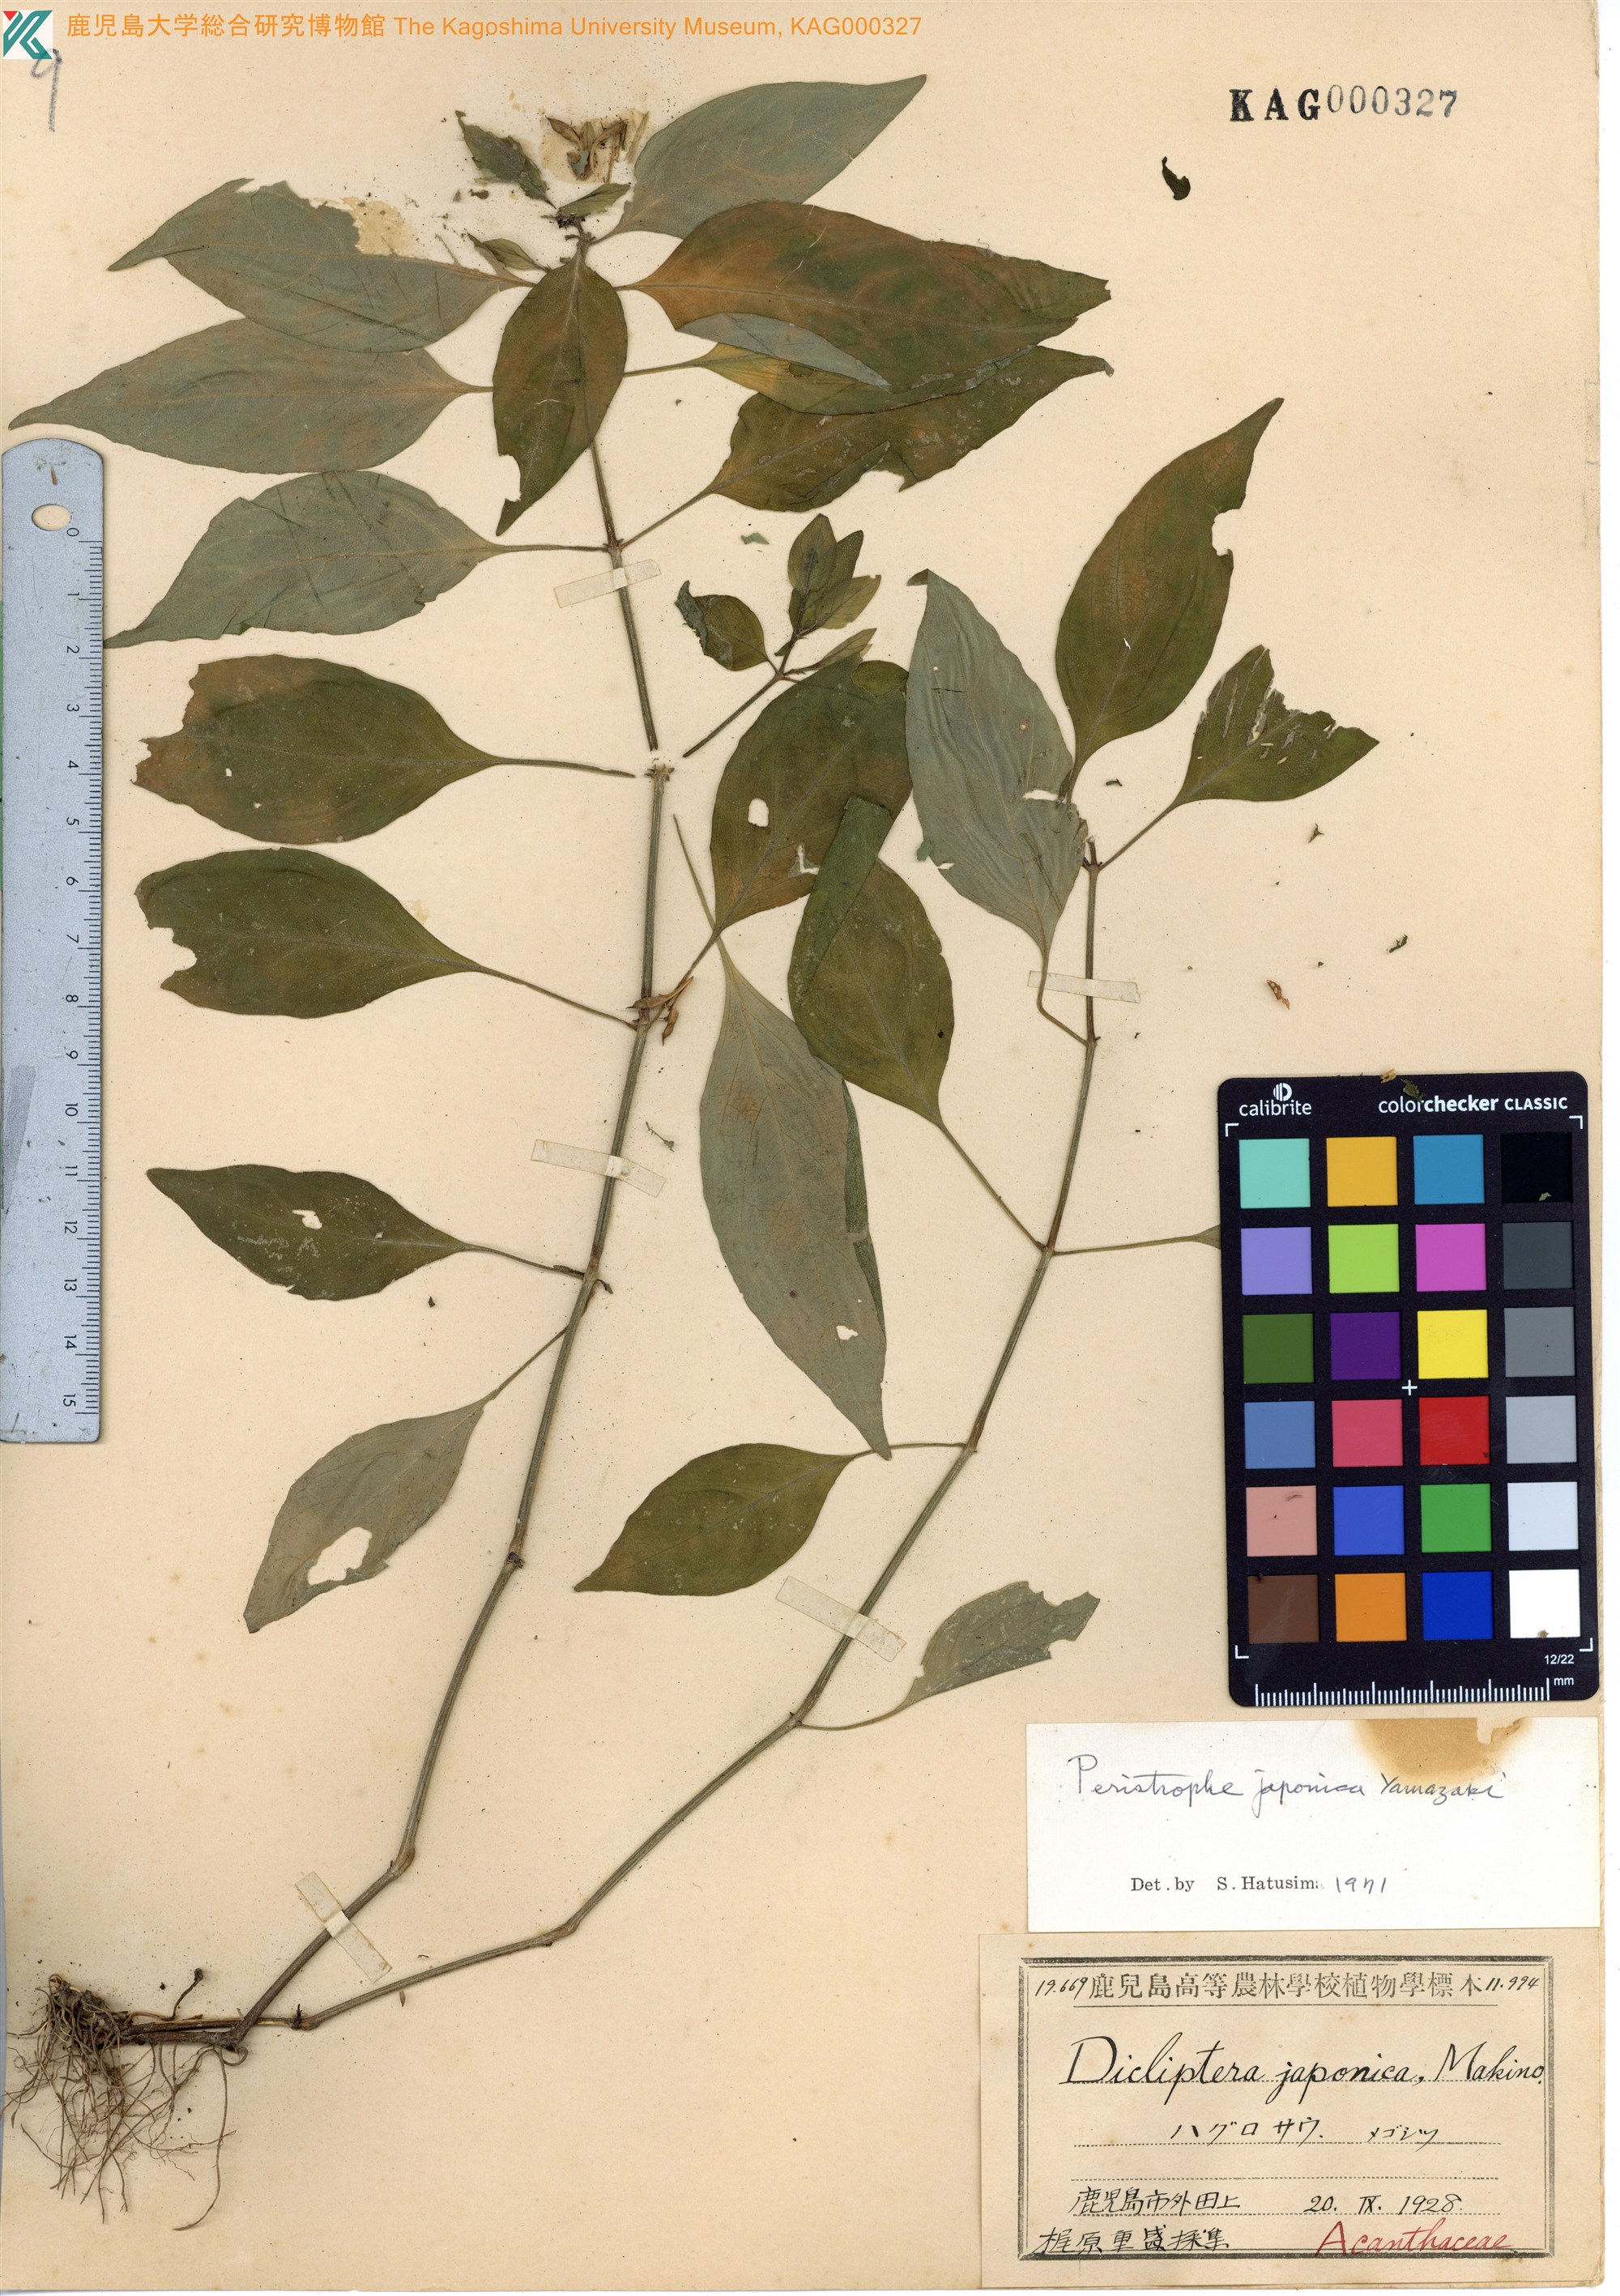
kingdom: Plantae
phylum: Tracheophyta
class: Magnoliopsida
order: Lamiales
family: Acanthaceae
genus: Dicliptera
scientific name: Dicliptera japonica
